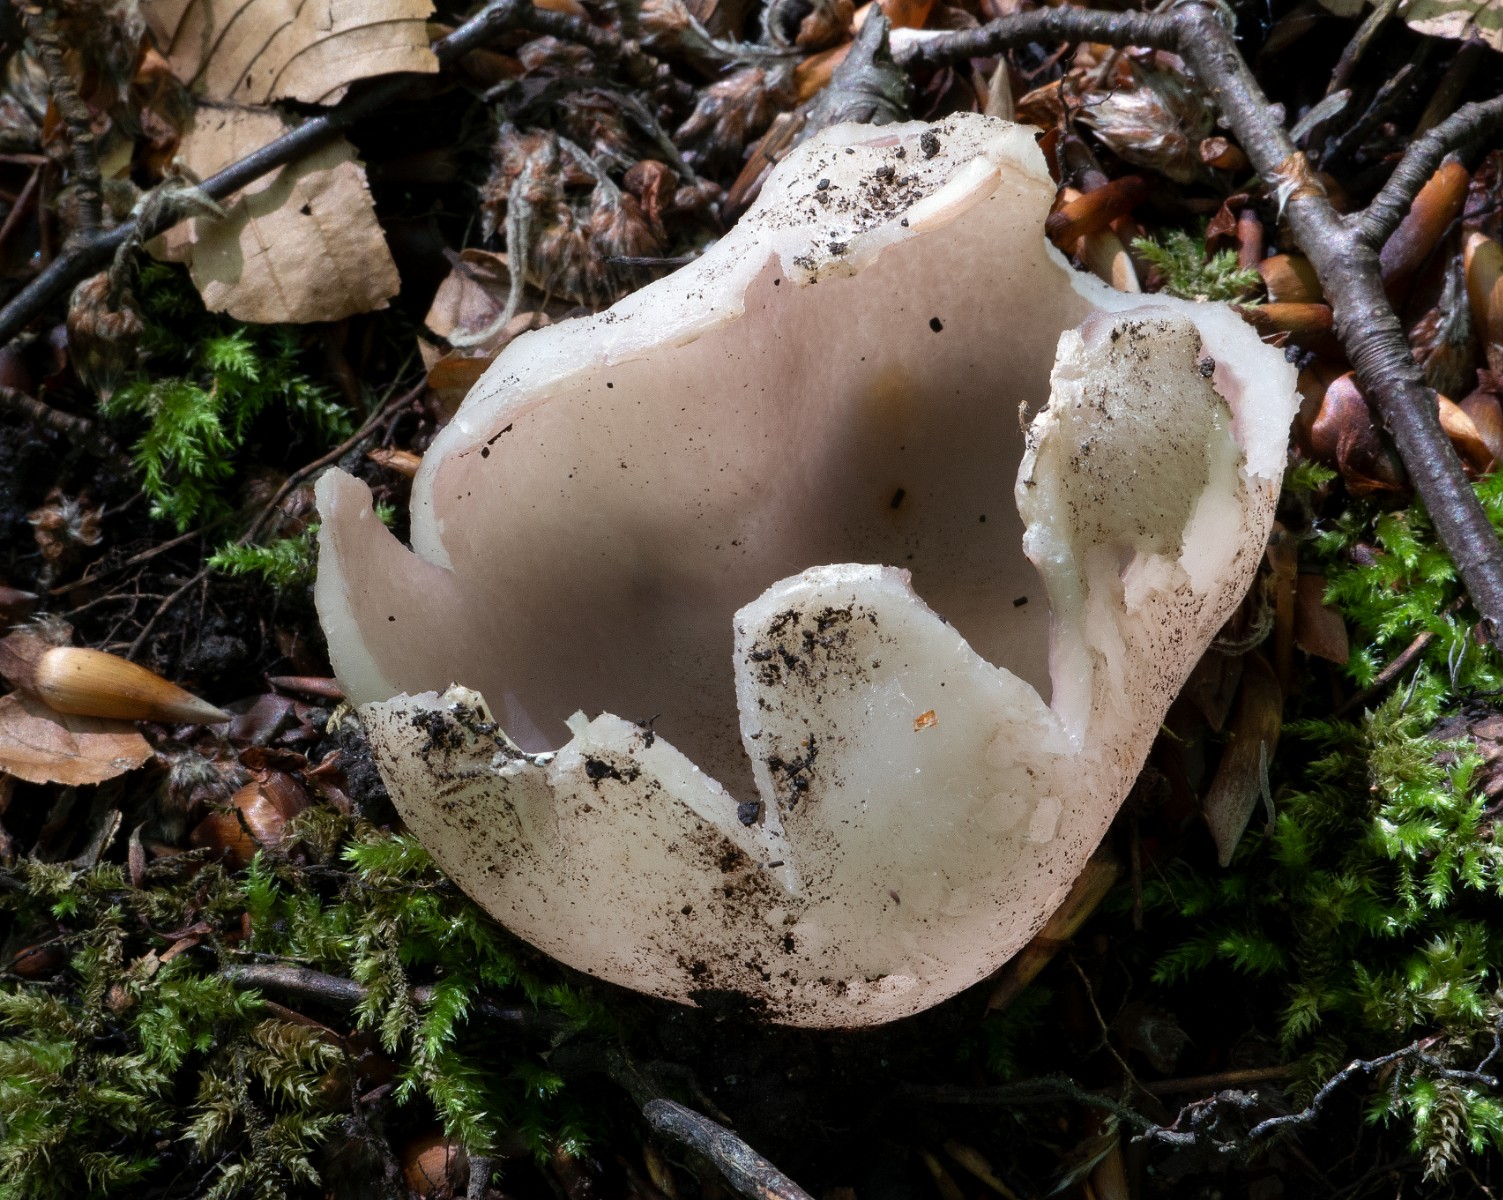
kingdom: Fungi
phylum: Ascomycota
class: Pezizomycetes
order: Pezizales
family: Pezizaceae
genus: Sarcosphaera
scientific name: Sarcosphaera coronaria
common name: stjernebæger
